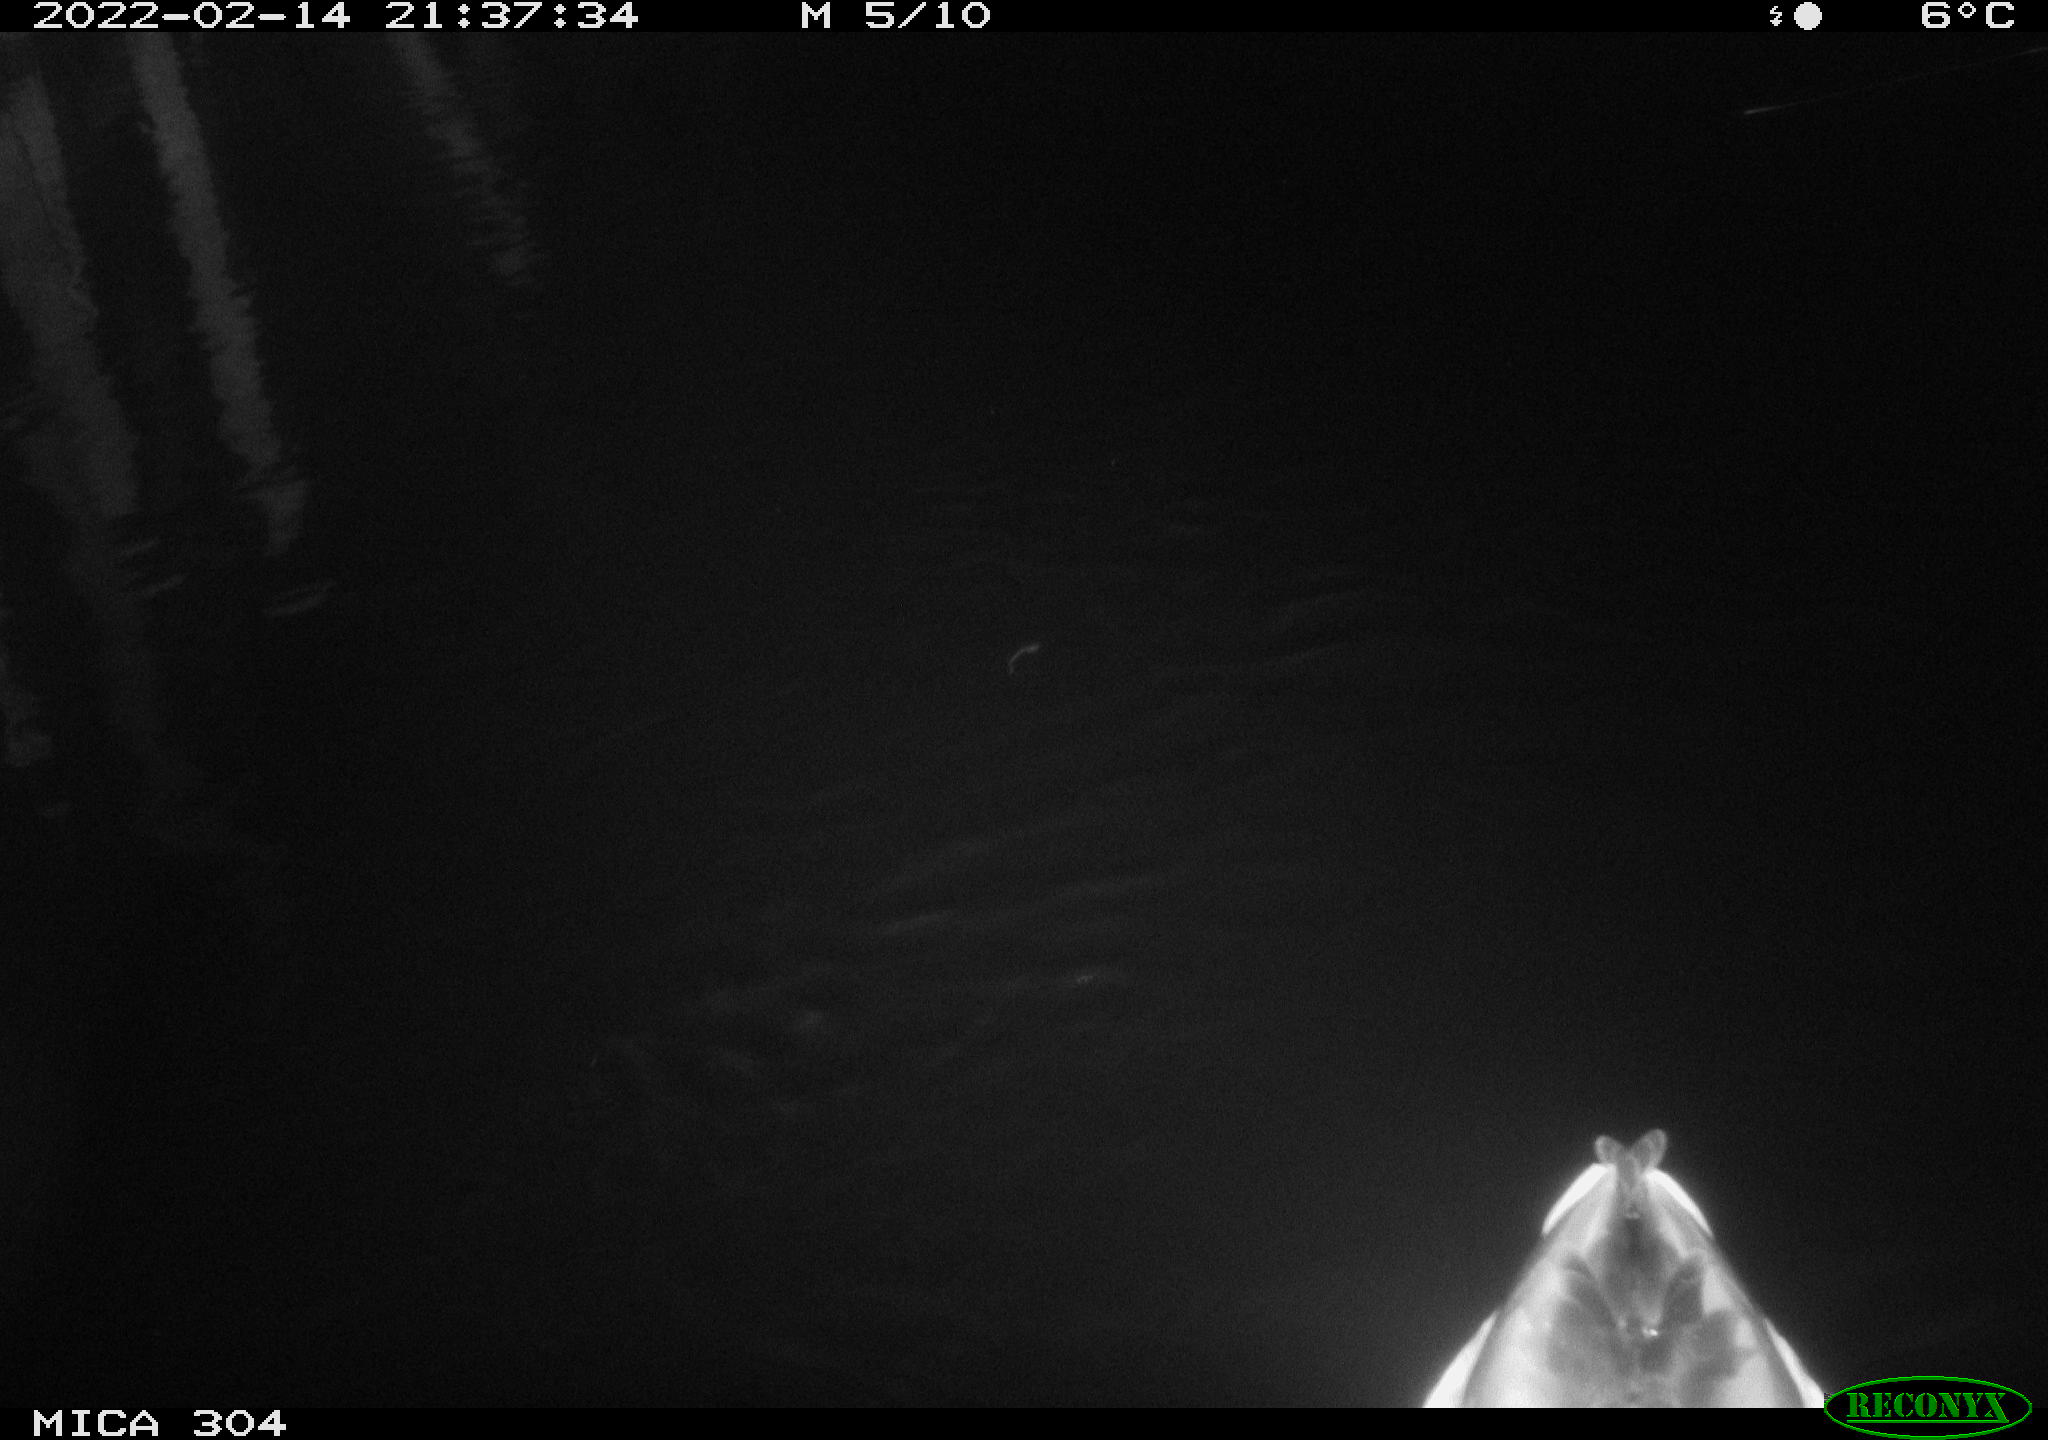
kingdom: Animalia
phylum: Chordata
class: Aves
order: Anseriformes
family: Anatidae
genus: Anas
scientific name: Anas platyrhynchos
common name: Mallard
